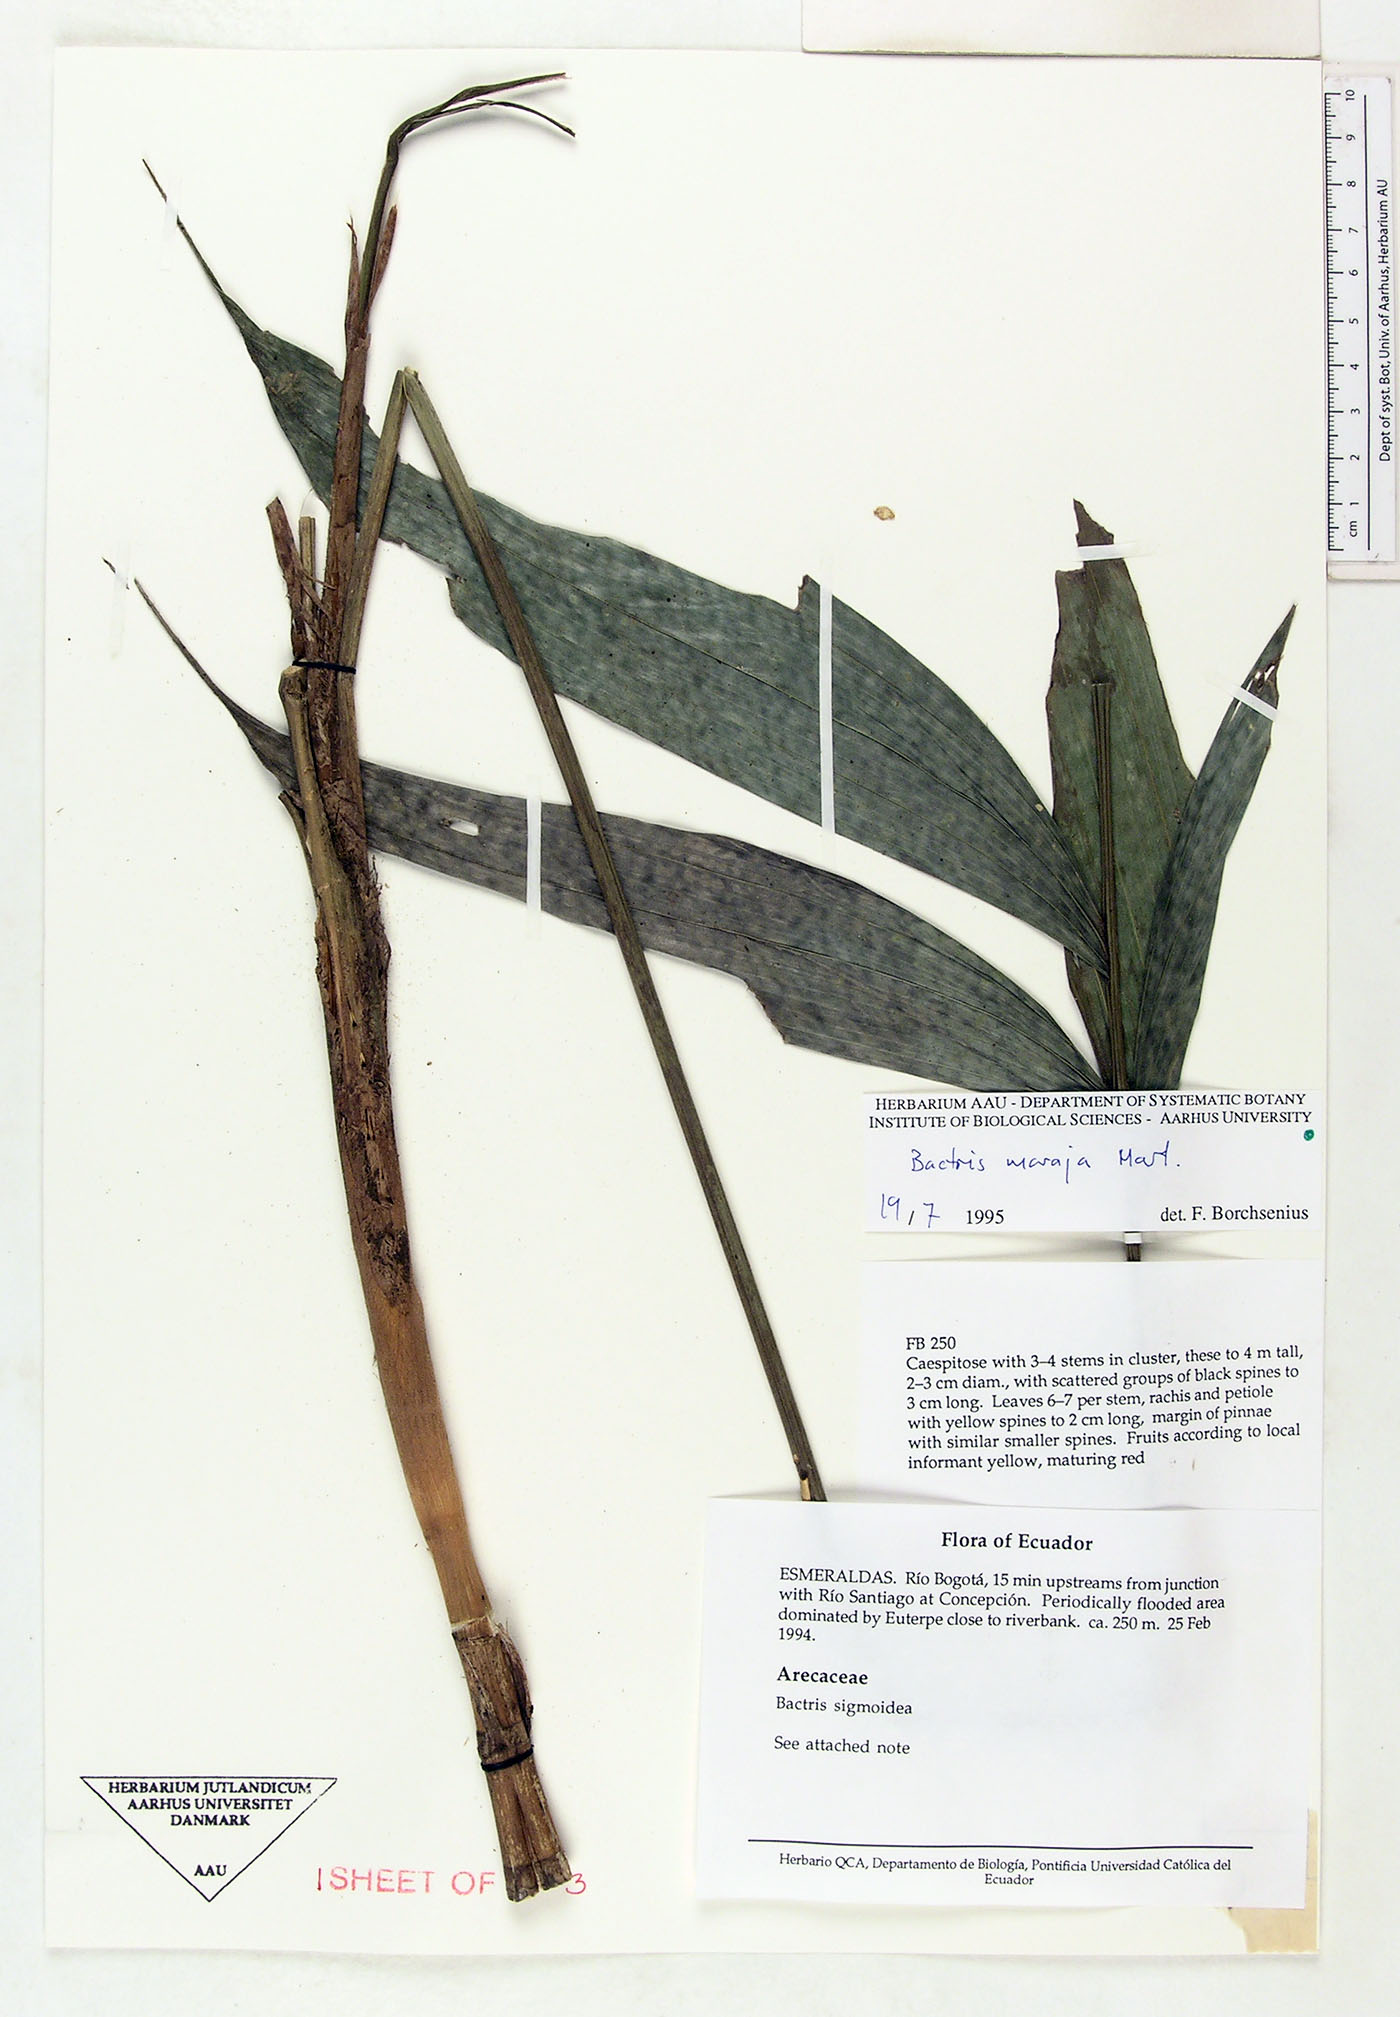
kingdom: Plantae
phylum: Tracheophyta
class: Liliopsida
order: Arecales
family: Arecaceae
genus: Bactris
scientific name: Bactris maraja
